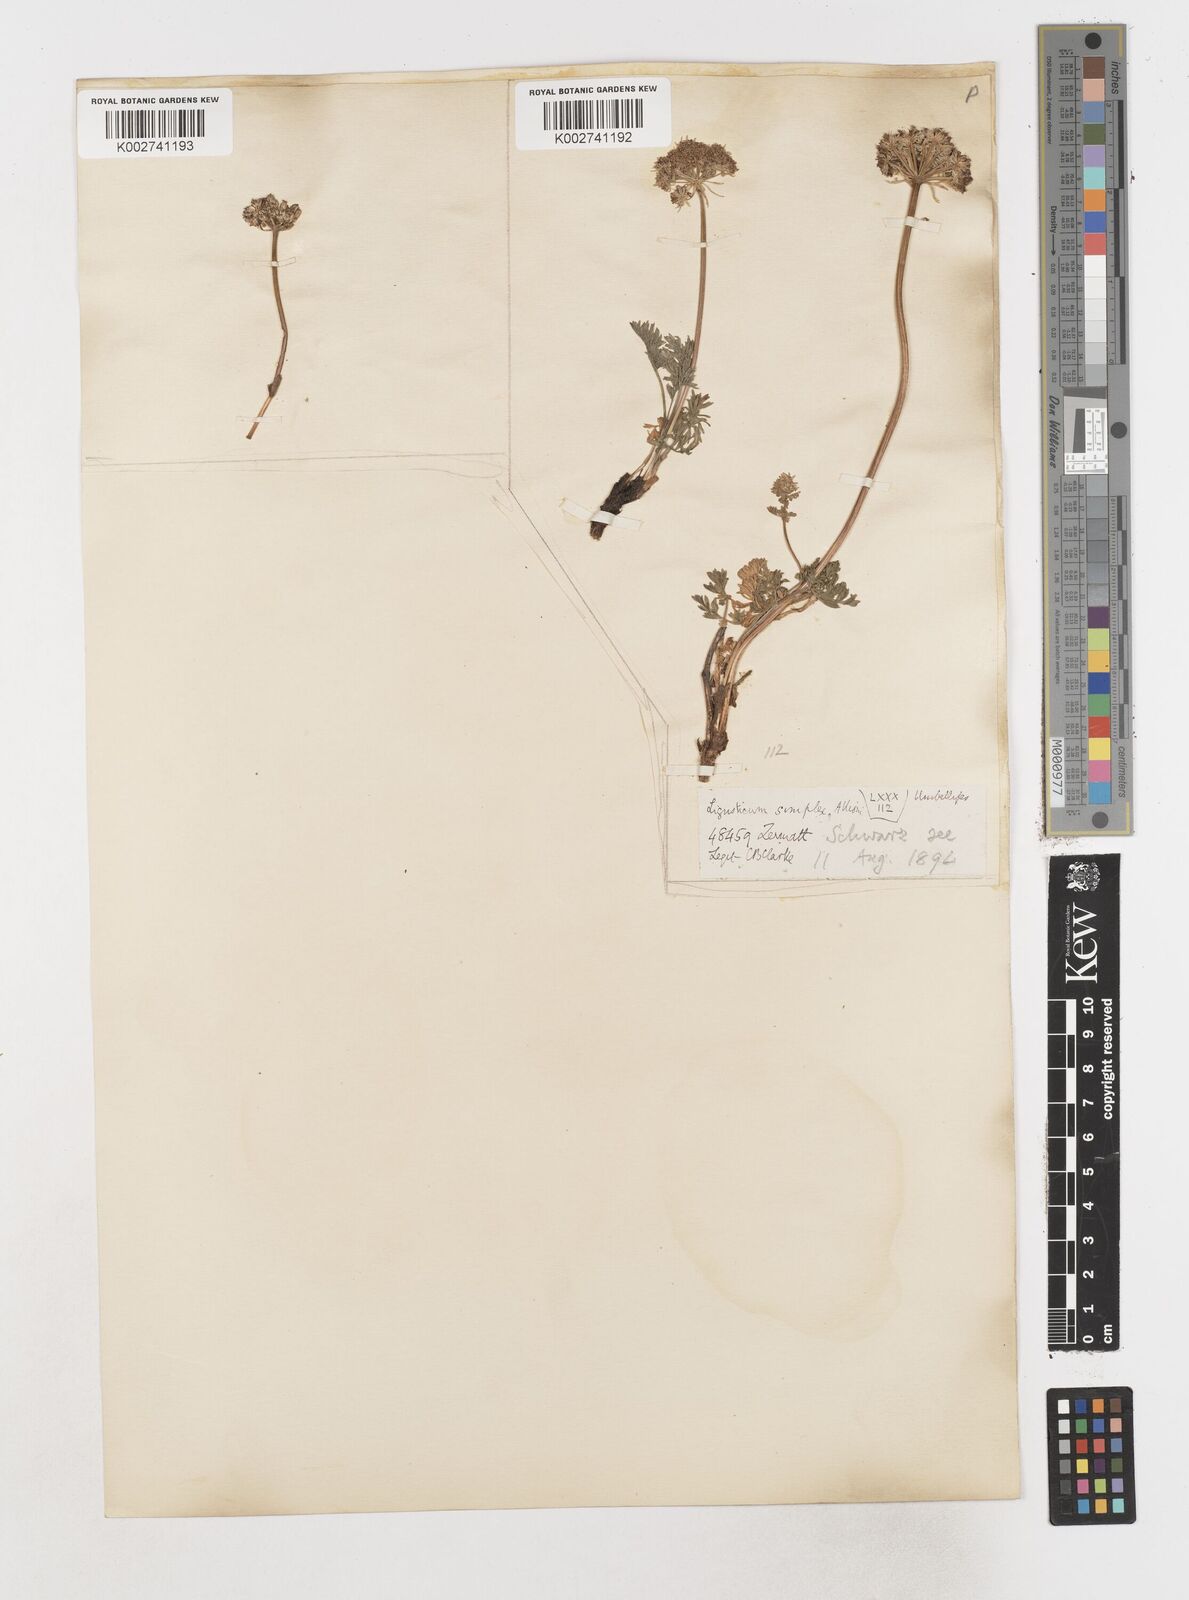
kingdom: Plantae
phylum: Tracheophyta
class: Magnoliopsida
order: Apiales
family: Apiaceae
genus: Pachypleurum
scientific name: Pachypleurum mutellinoides
